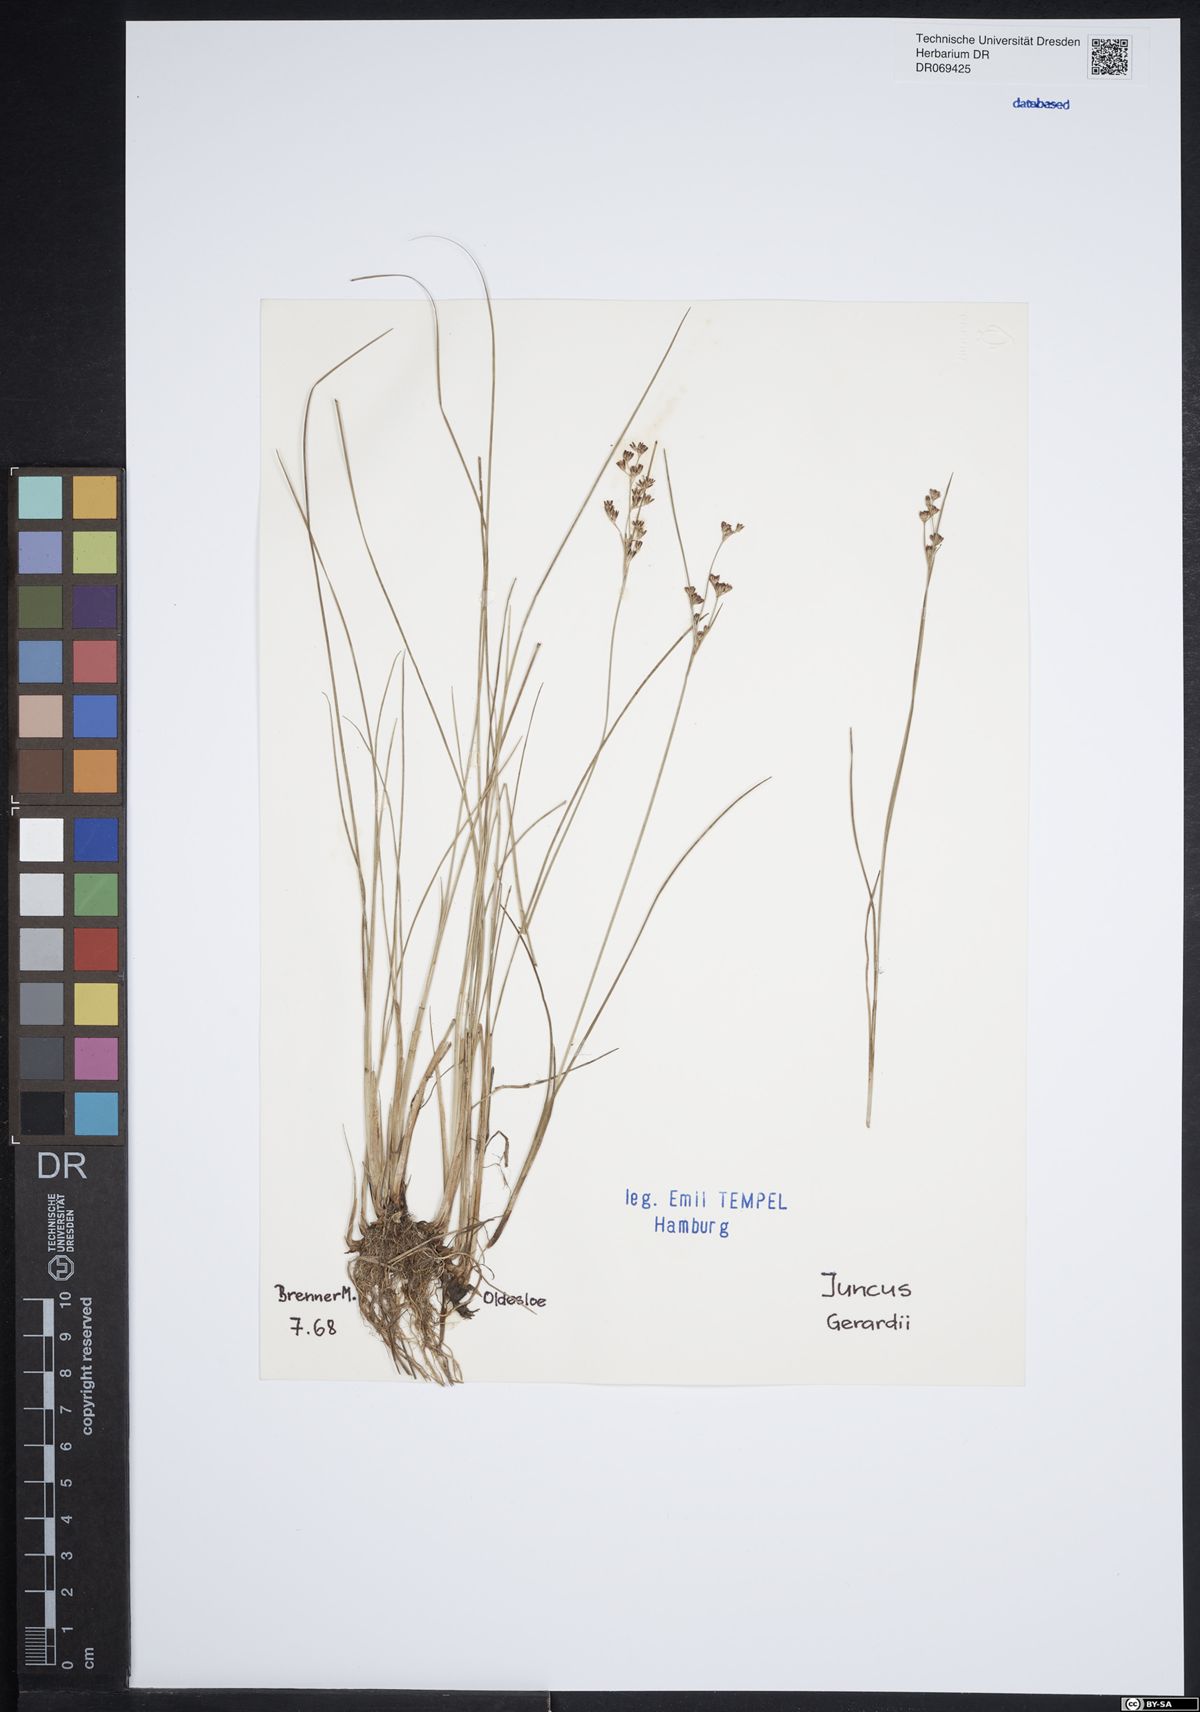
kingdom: Plantae
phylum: Tracheophyta
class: Liliopsida
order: Poales
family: Juncaceae
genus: Juncus
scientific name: Juncus gerardi
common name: Saltmarsh rush
